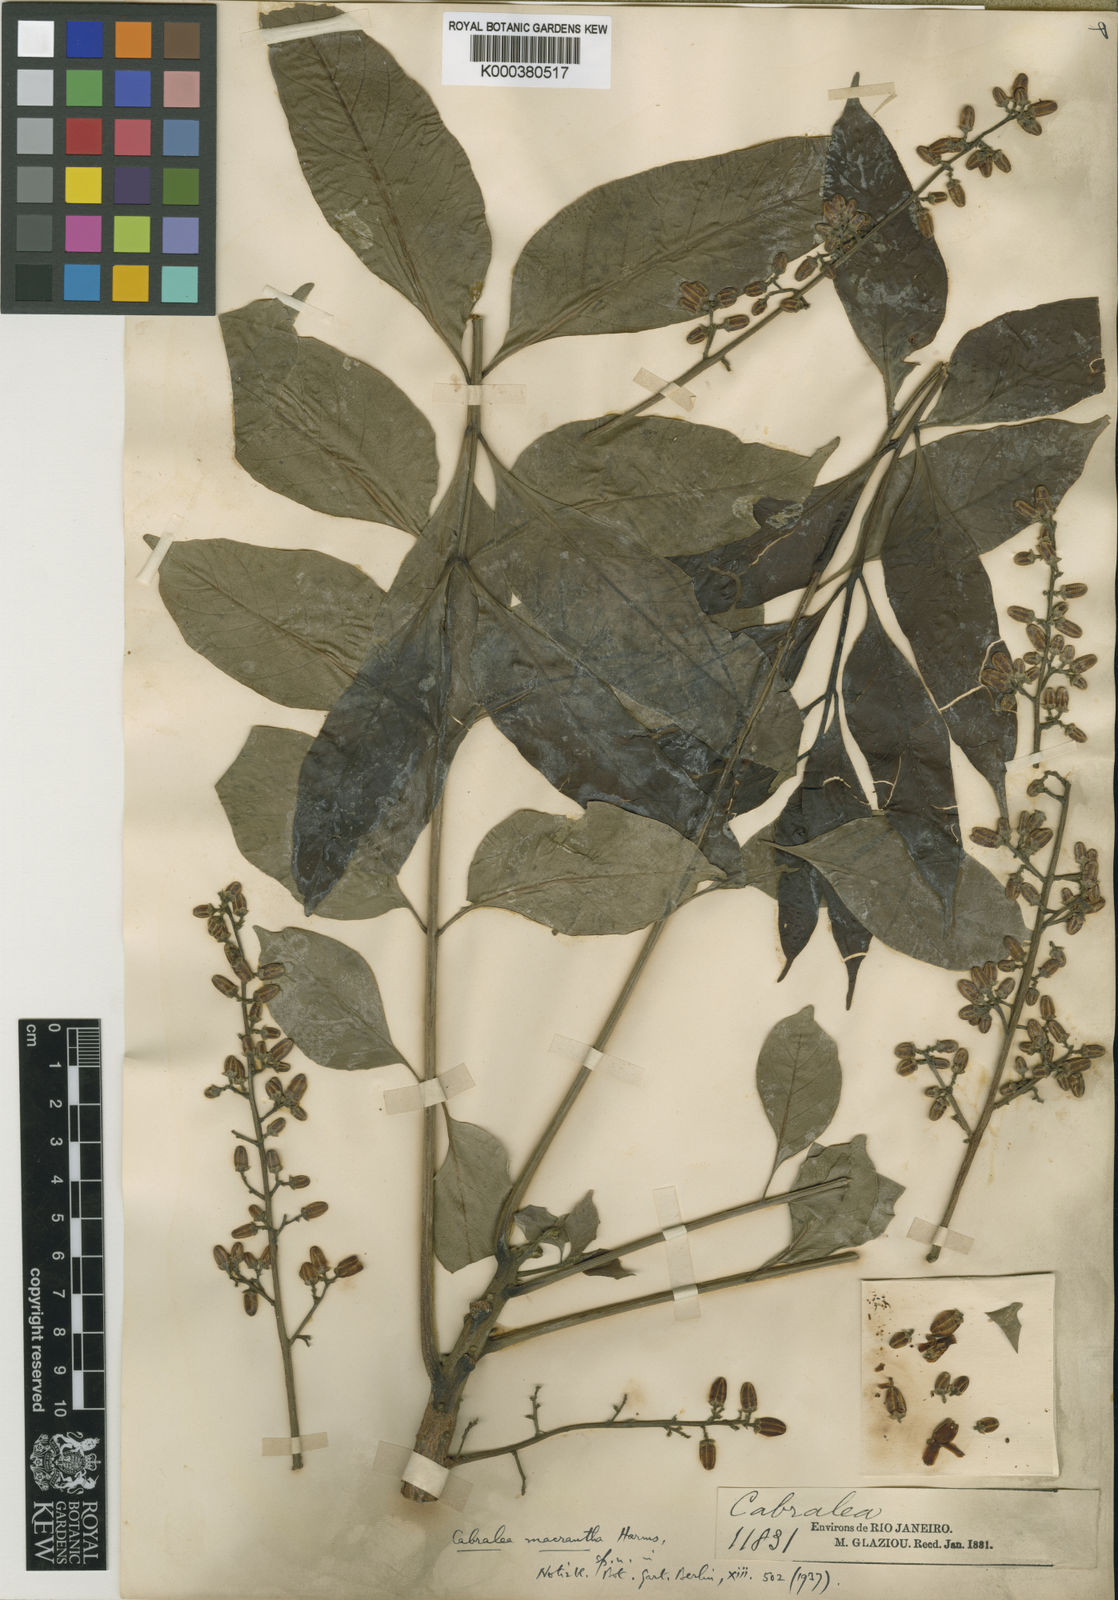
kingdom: Plantae
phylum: Tracheophyta
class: Magnoliopsida
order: Sapindales
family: Meliaceae
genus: Cabralea
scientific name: Cabralea canjerana
